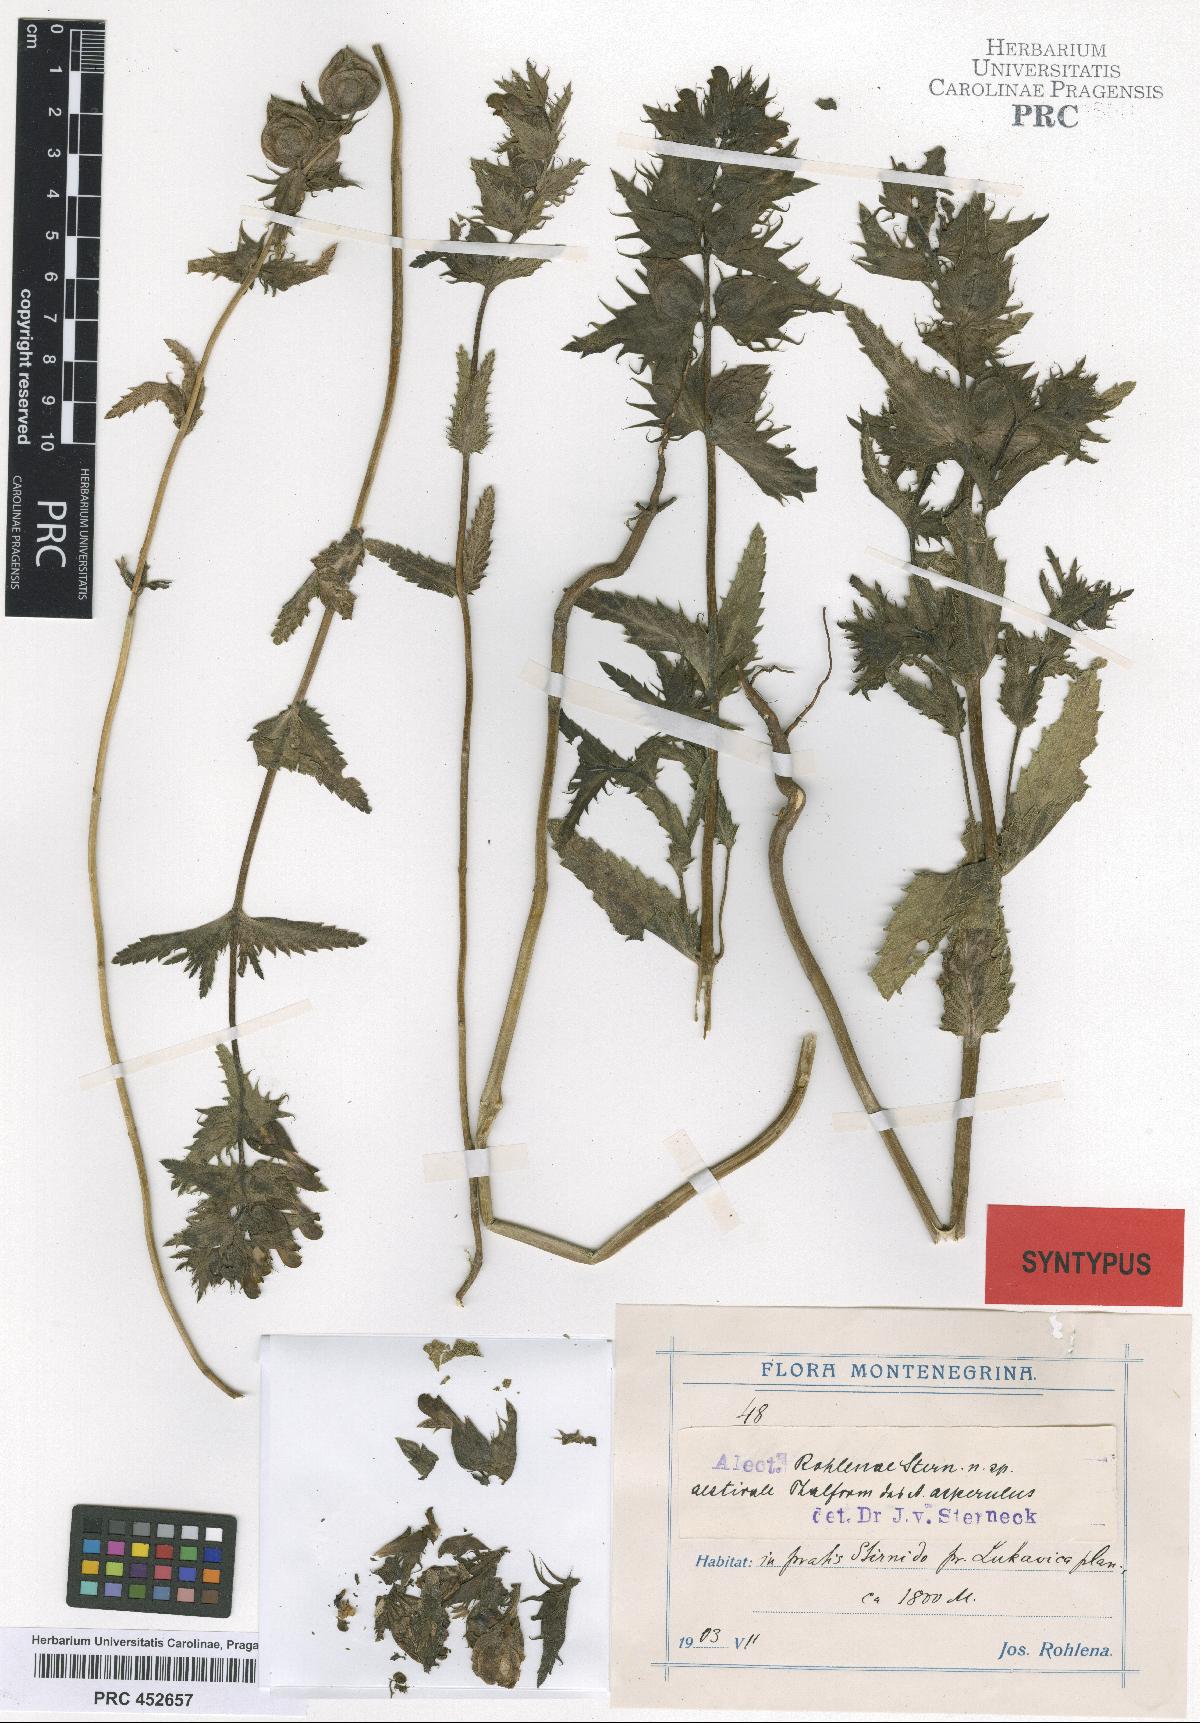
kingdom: Plantae
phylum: Tracheophyta
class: Magnoliopsida
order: Lamiales
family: Scrophulariaceae
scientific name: Scrophulariaceae
